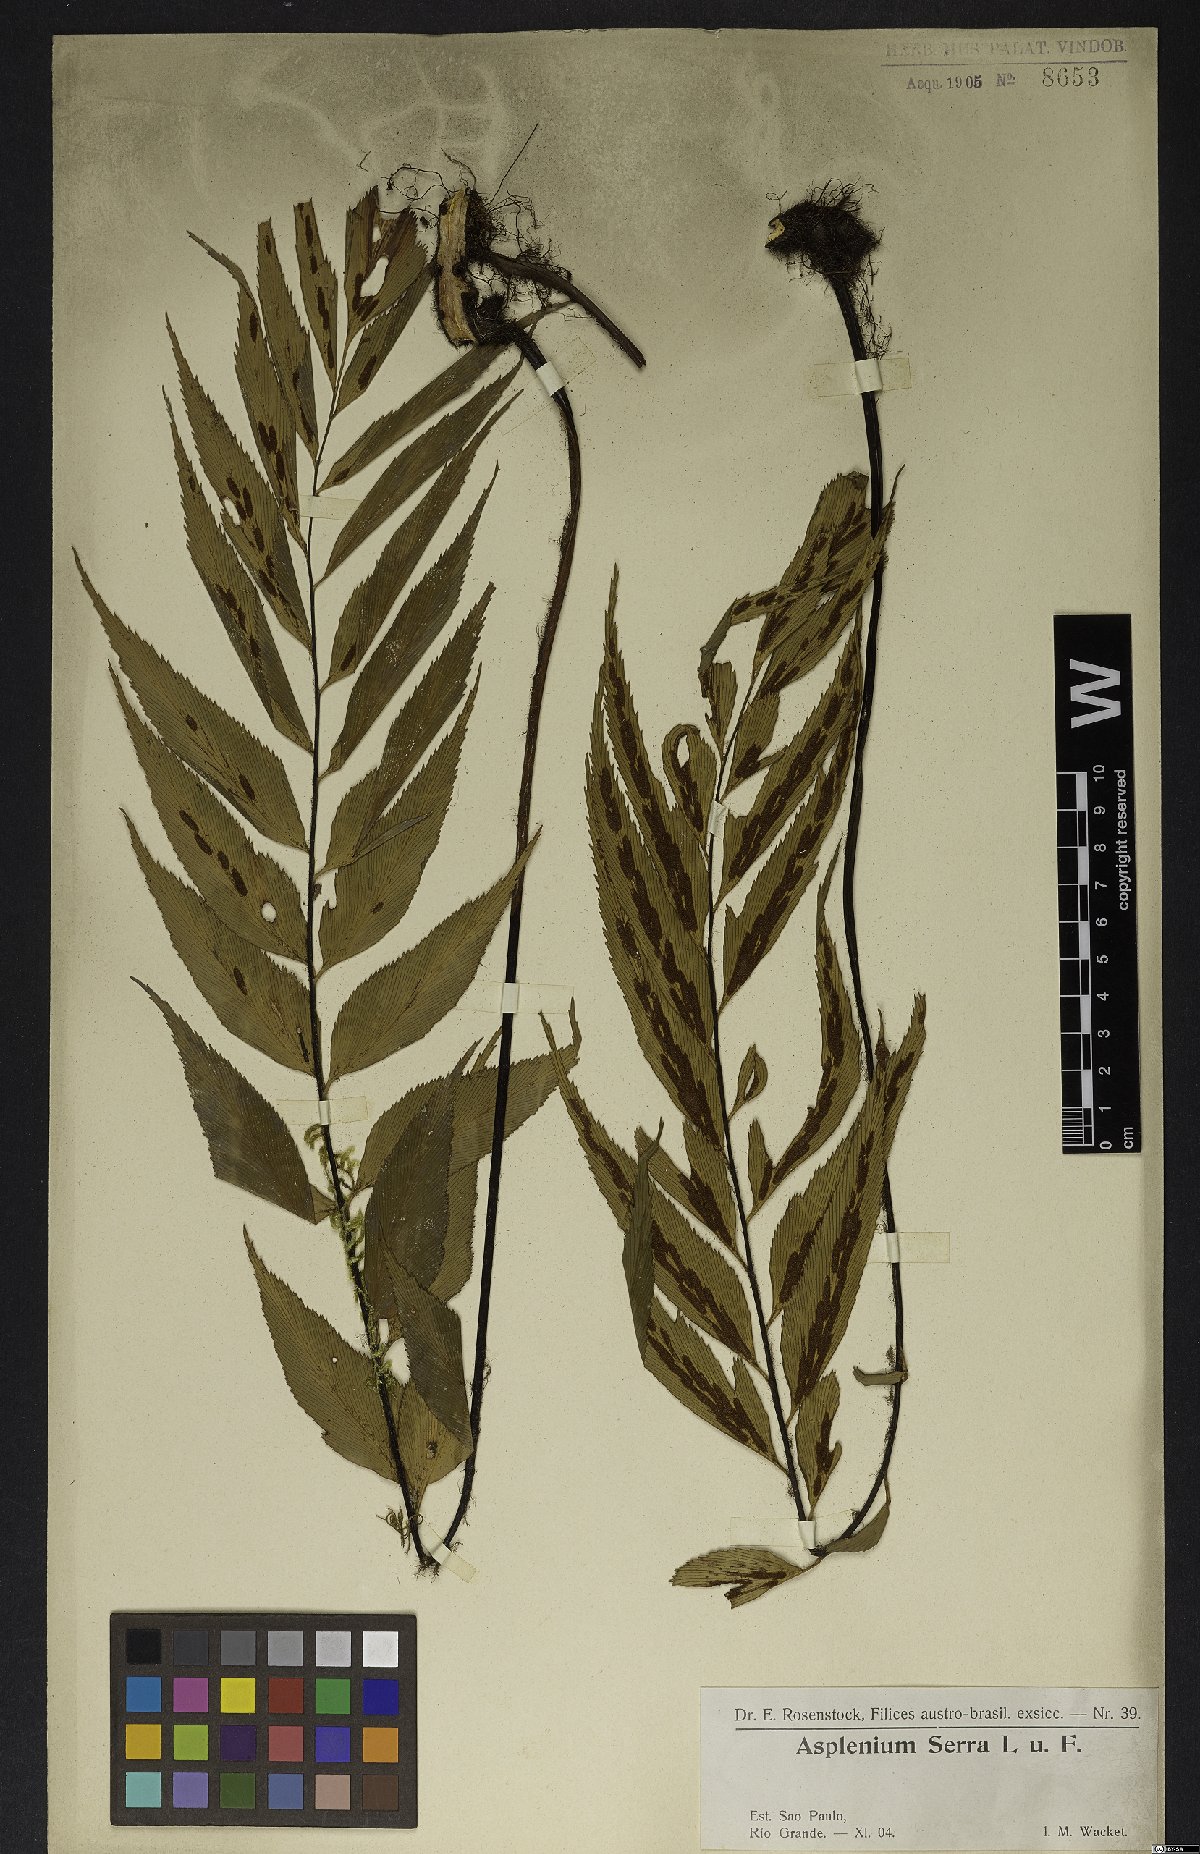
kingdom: Plantae
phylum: Tracheophyta
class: Polypodiopsida
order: Polypodiales
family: Aspleniaceae
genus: Asplenium
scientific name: Asplenium serra
